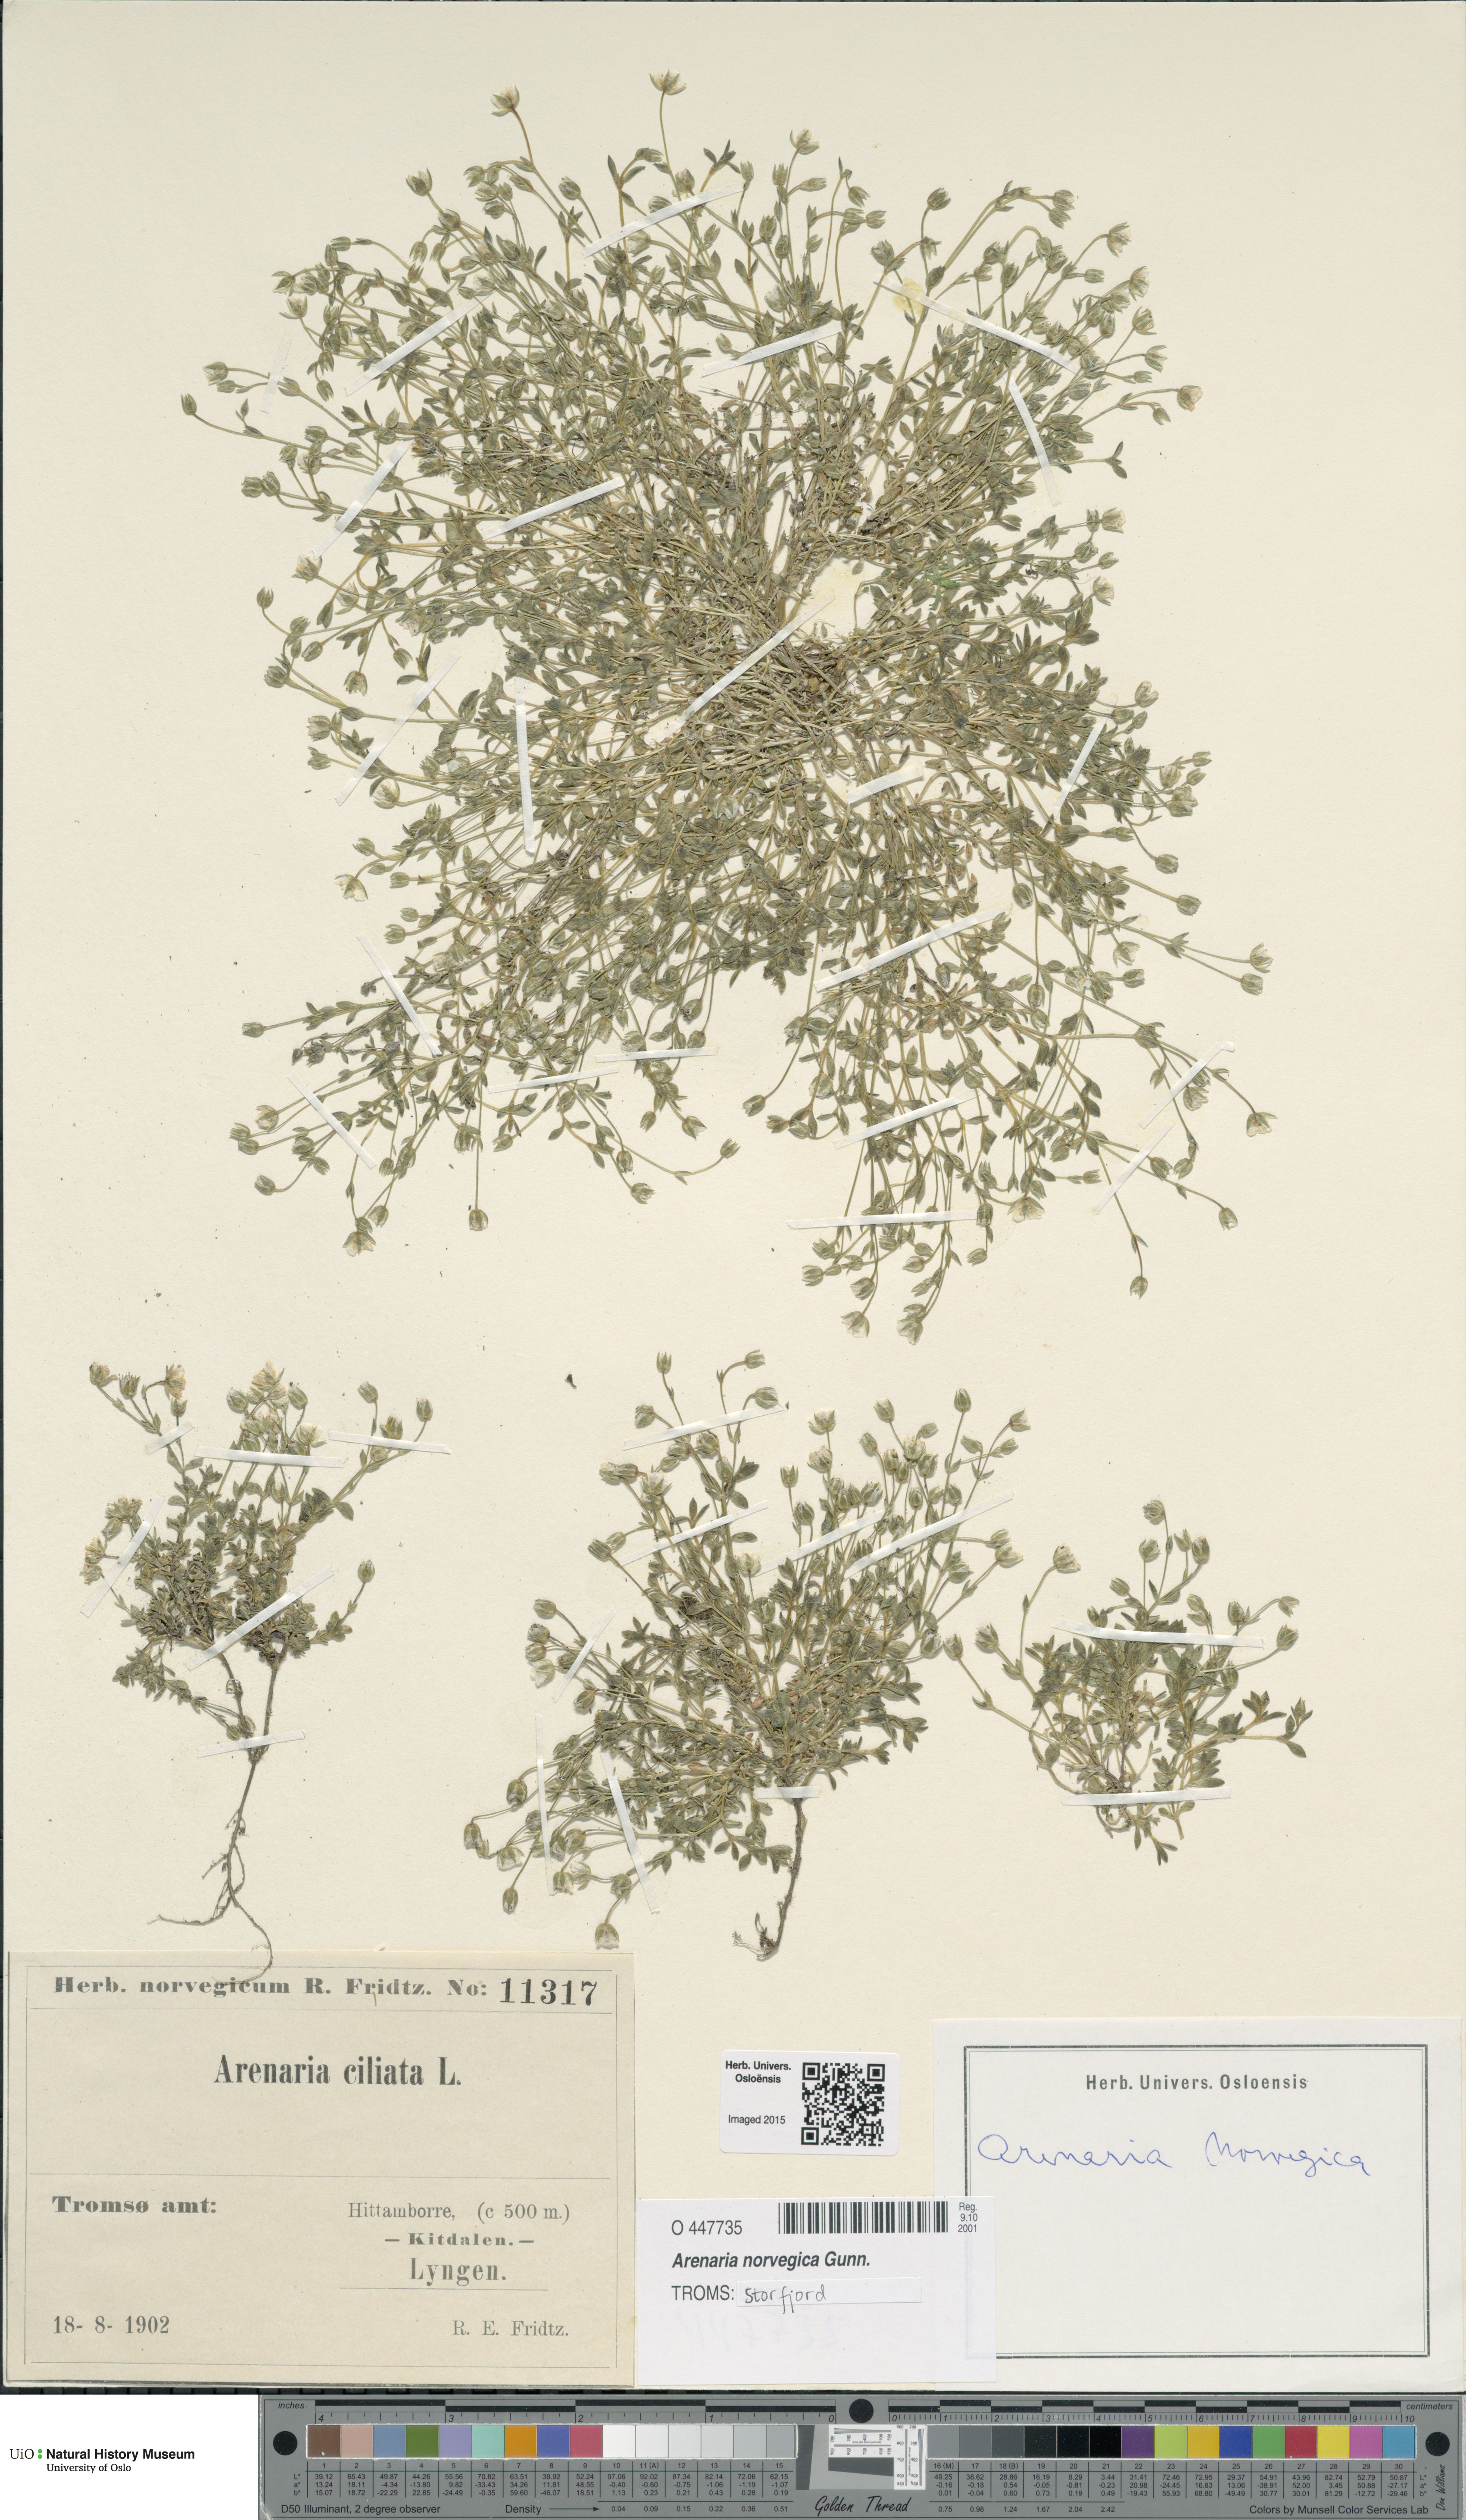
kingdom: Plantae
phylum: Tracheophyta
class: Magnoliopsida
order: Caryophyllales
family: Caryophyllaceae
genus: Arenaria
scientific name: Arenaria norvegica
